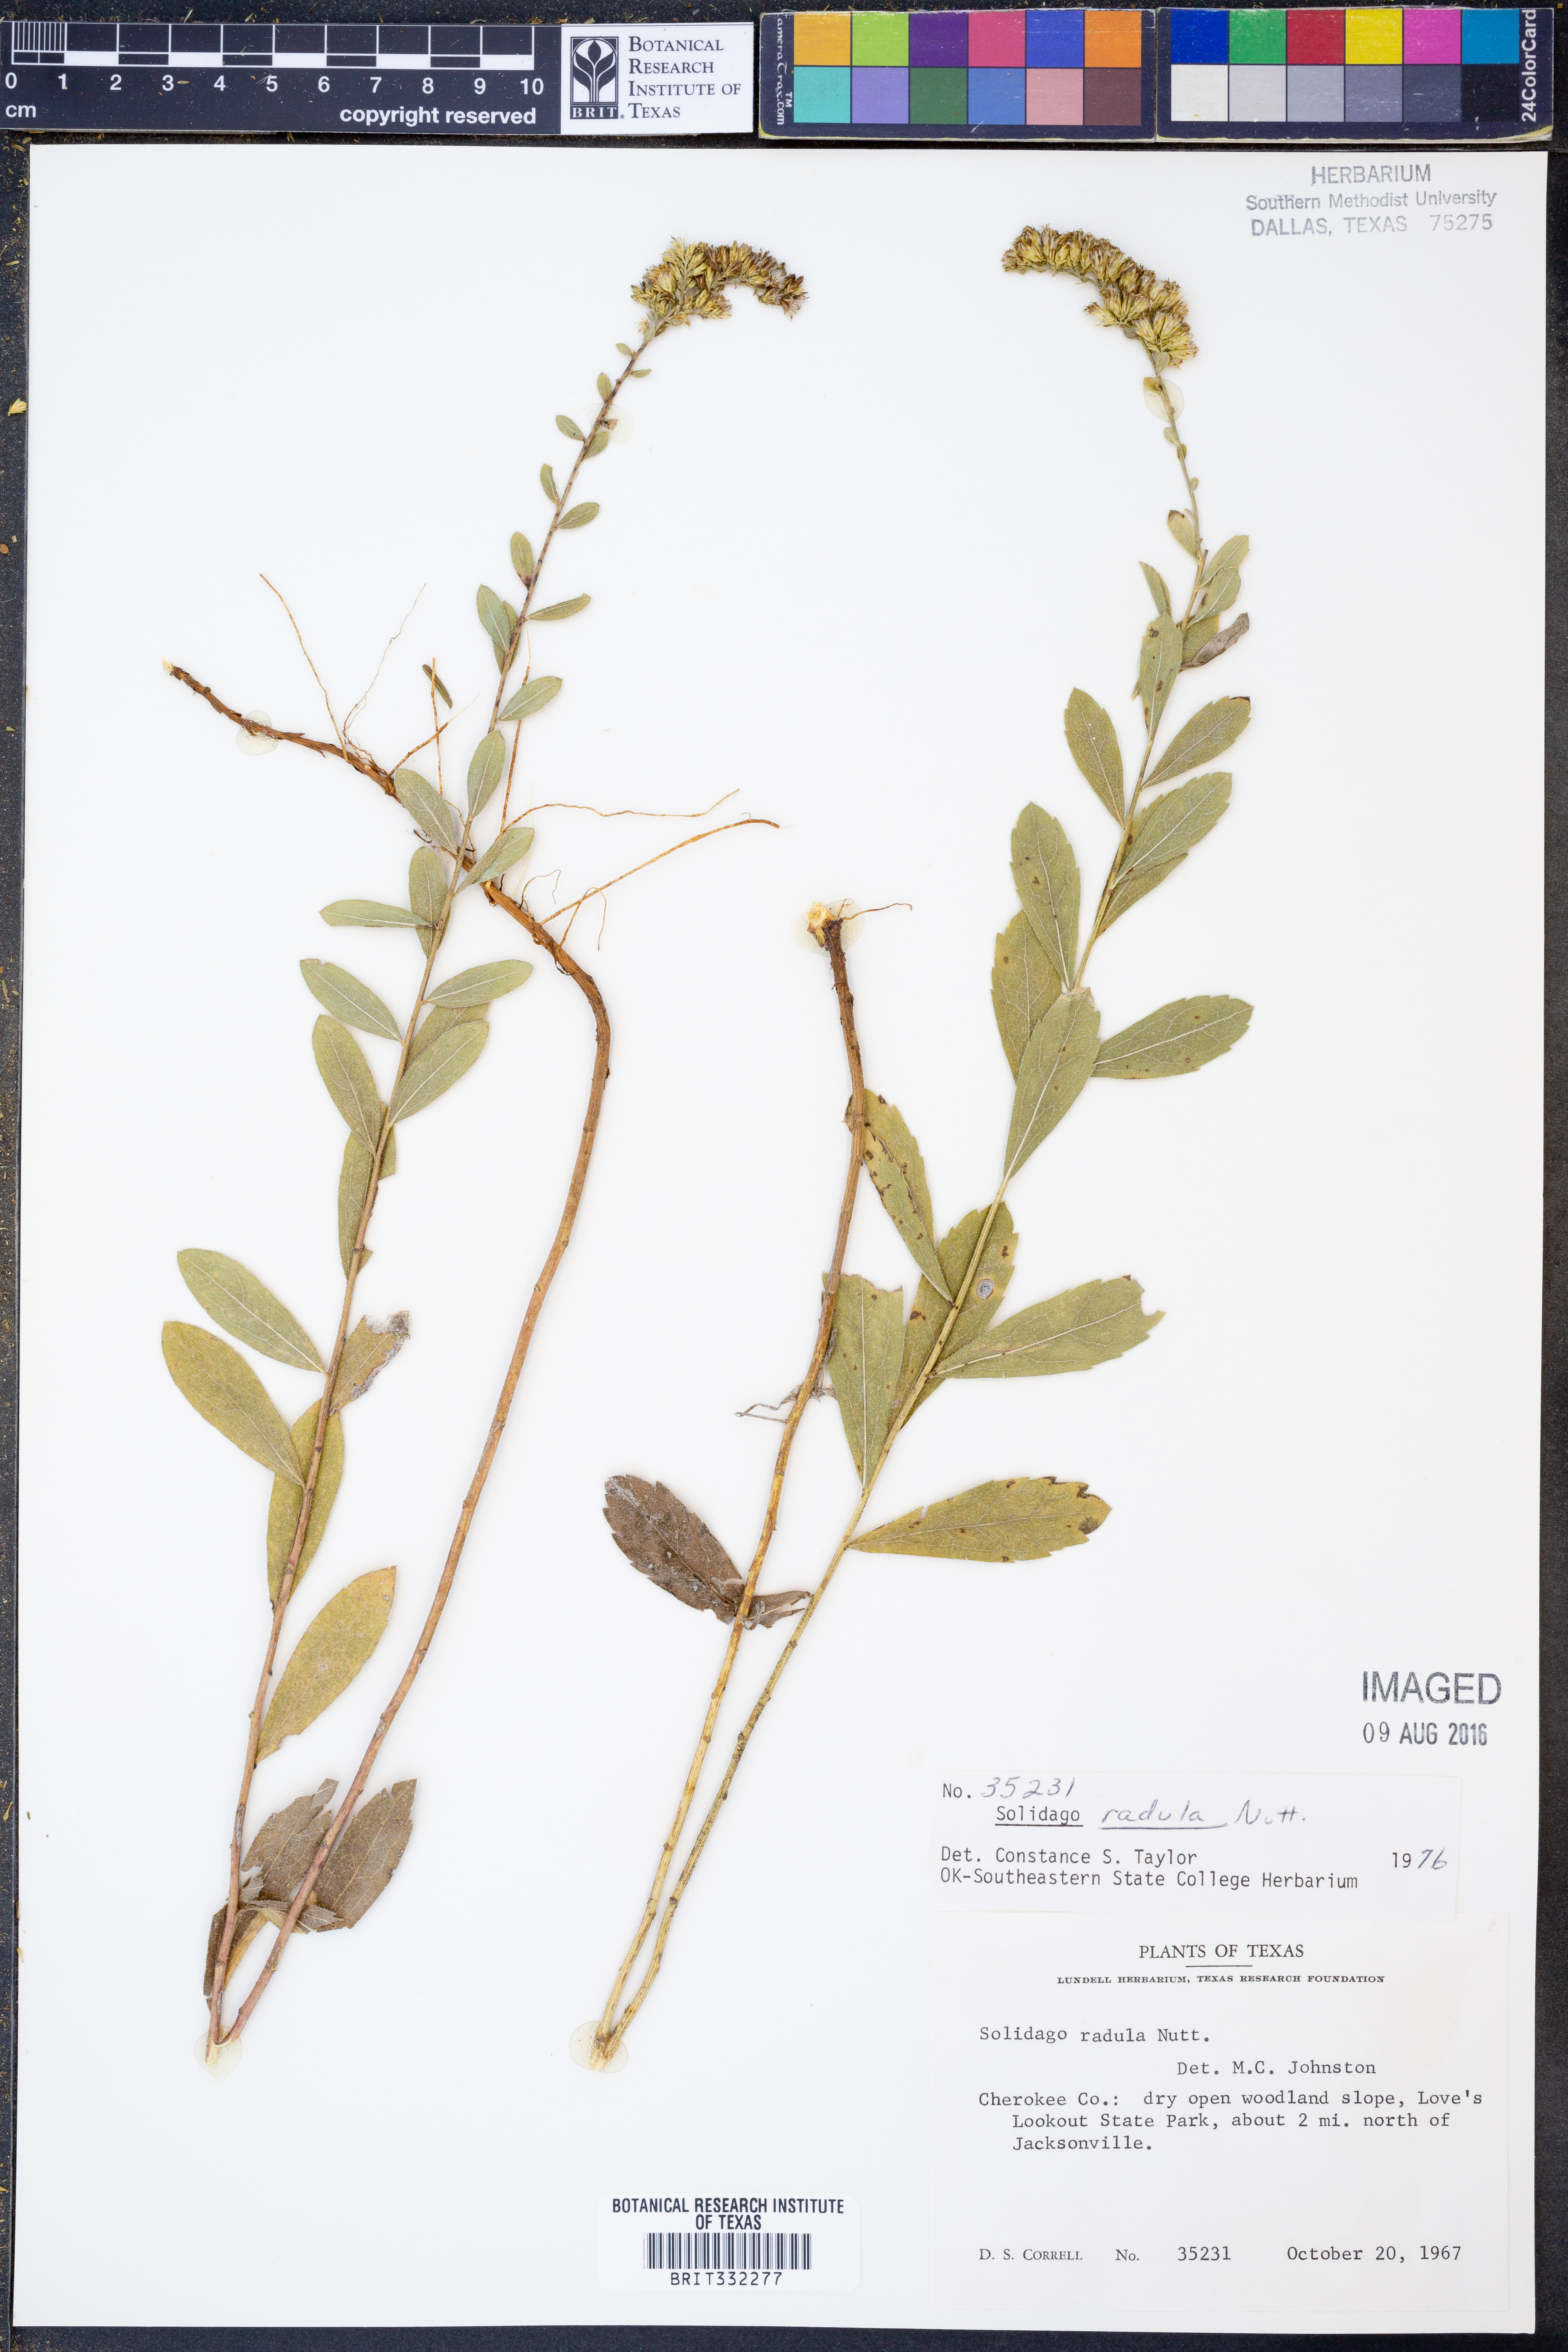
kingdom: Plantae
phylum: Tracheophyta
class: Magnoliopsida
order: Asterales
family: Asteraceae
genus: Solidago
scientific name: Solidago radula
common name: Western rough goldenrod
